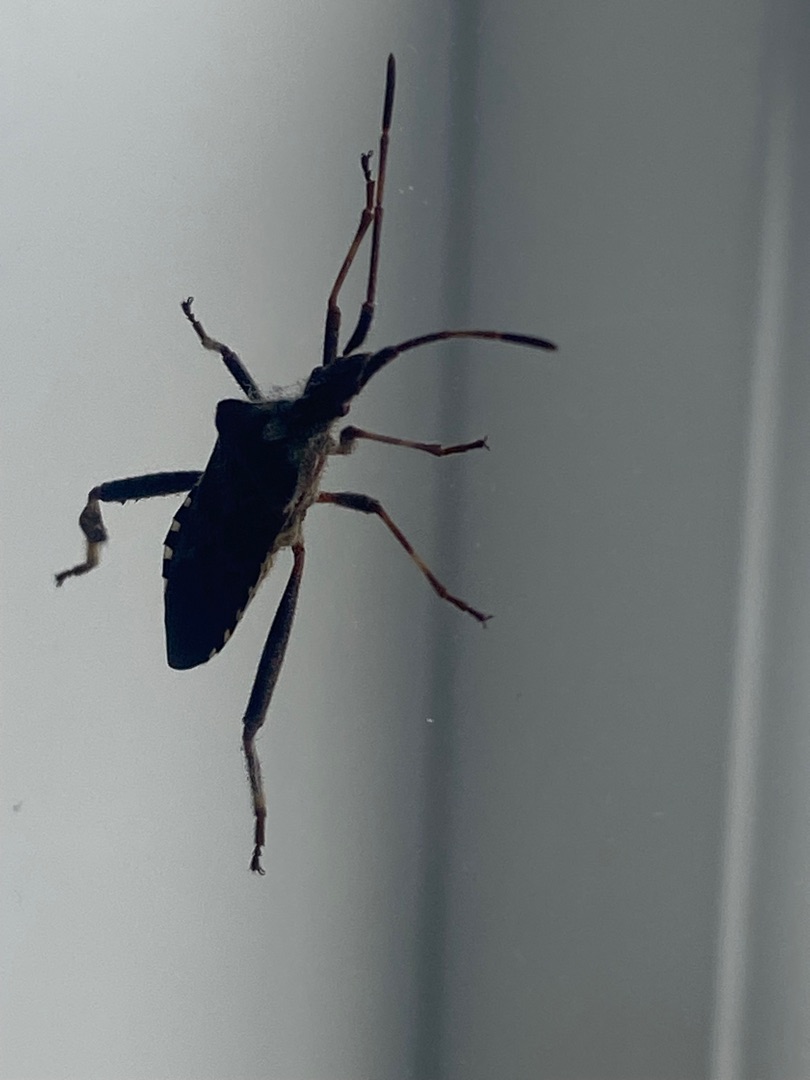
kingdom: Animalia
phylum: Arthropoda
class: Insecta
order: Hemiptera
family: Coreidae
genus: Leptoglossus
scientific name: Leptoglossus occidentalis
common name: Amerikansk fyrretæge
